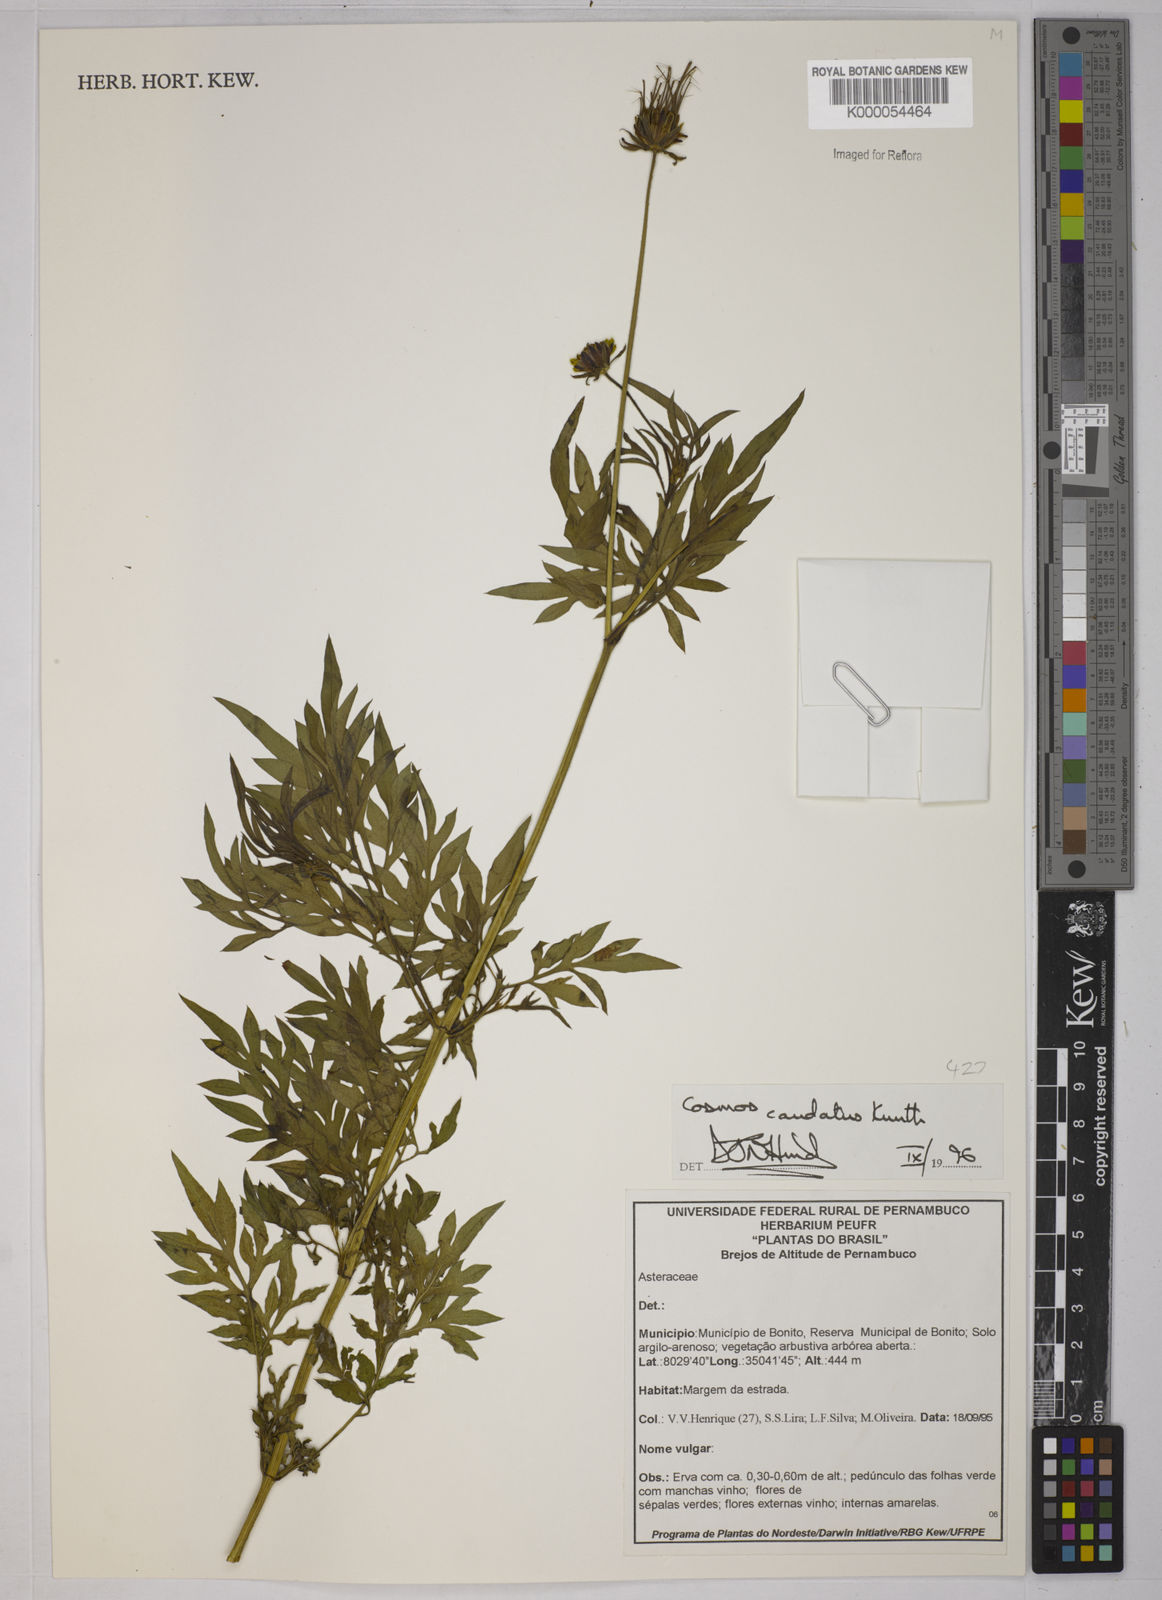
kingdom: Plantae
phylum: Tracheophyta
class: Magnoliopsida
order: Asterales
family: Asteraceae
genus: Cosmos
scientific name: Cosmos caudatus
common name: Wild cosmos
